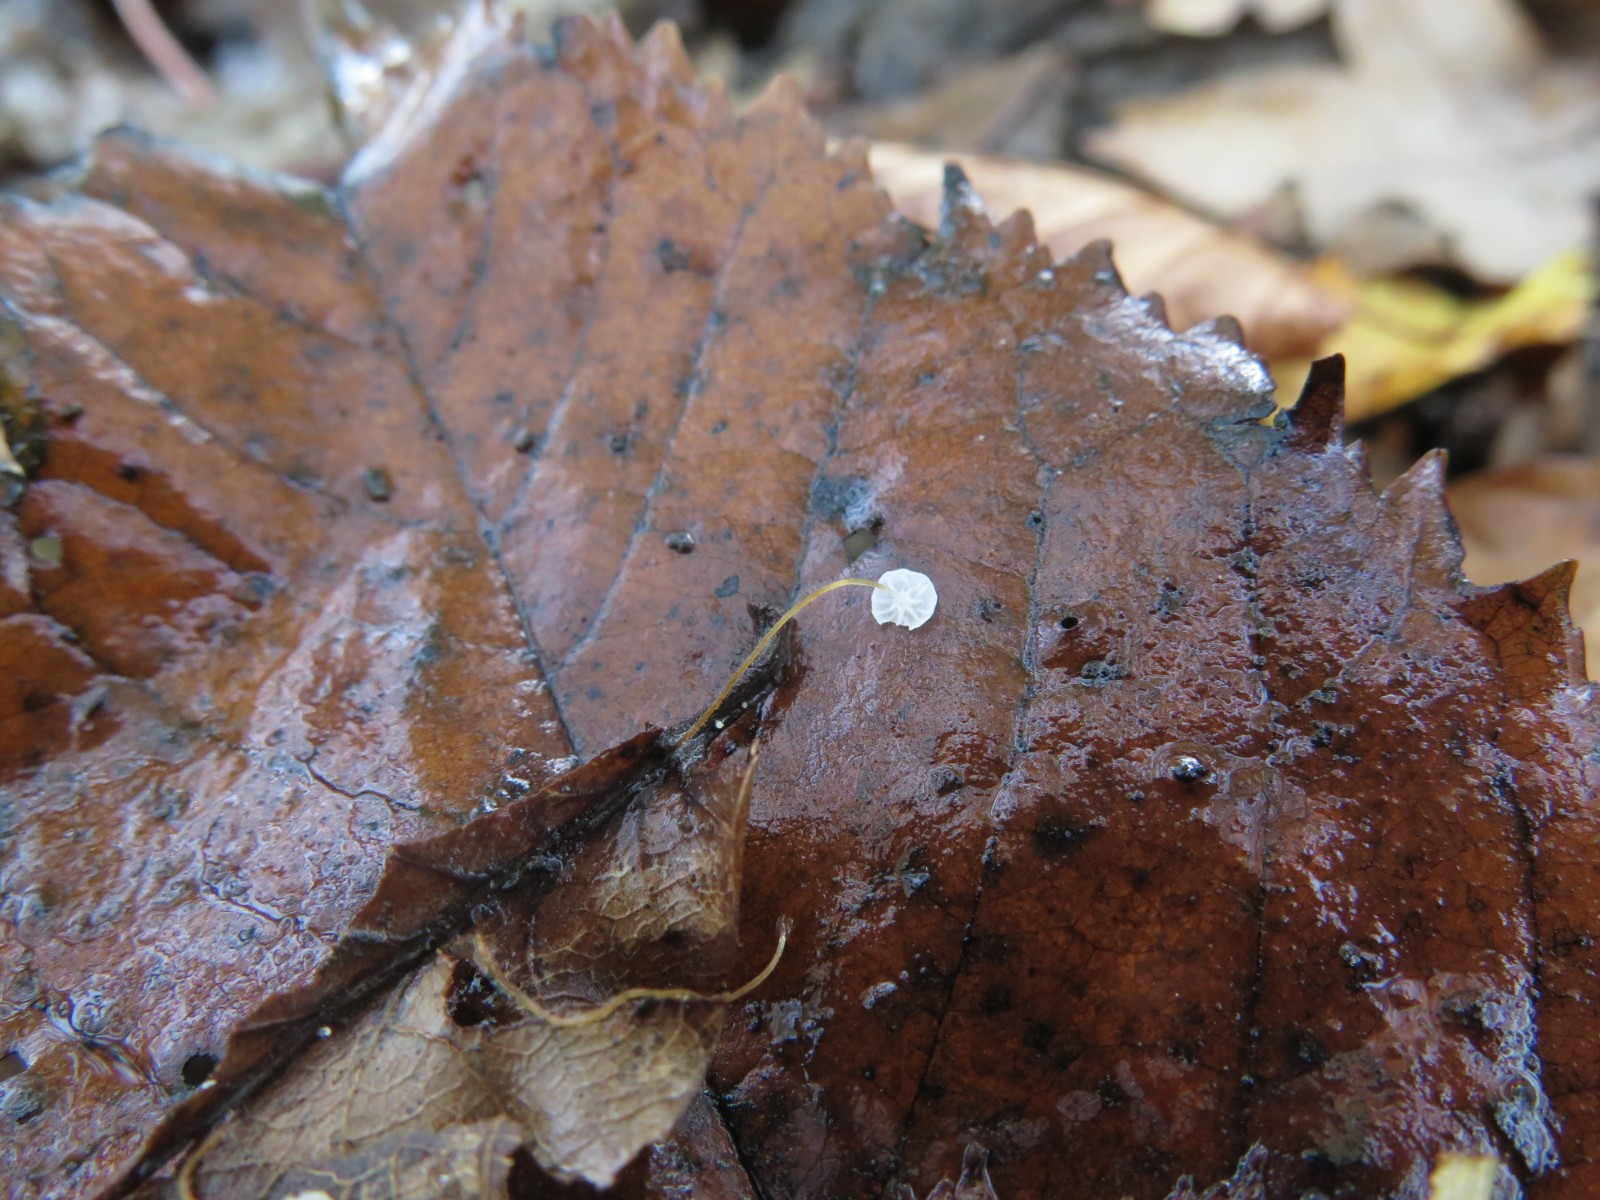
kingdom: Fungi
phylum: Basidiomycota
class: Agaricomycetes
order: Agaricales
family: Physalacriaceae
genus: Rhizomarasmius
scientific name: Rhizomarasmius setosus
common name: bøgeblads-bruskhat
